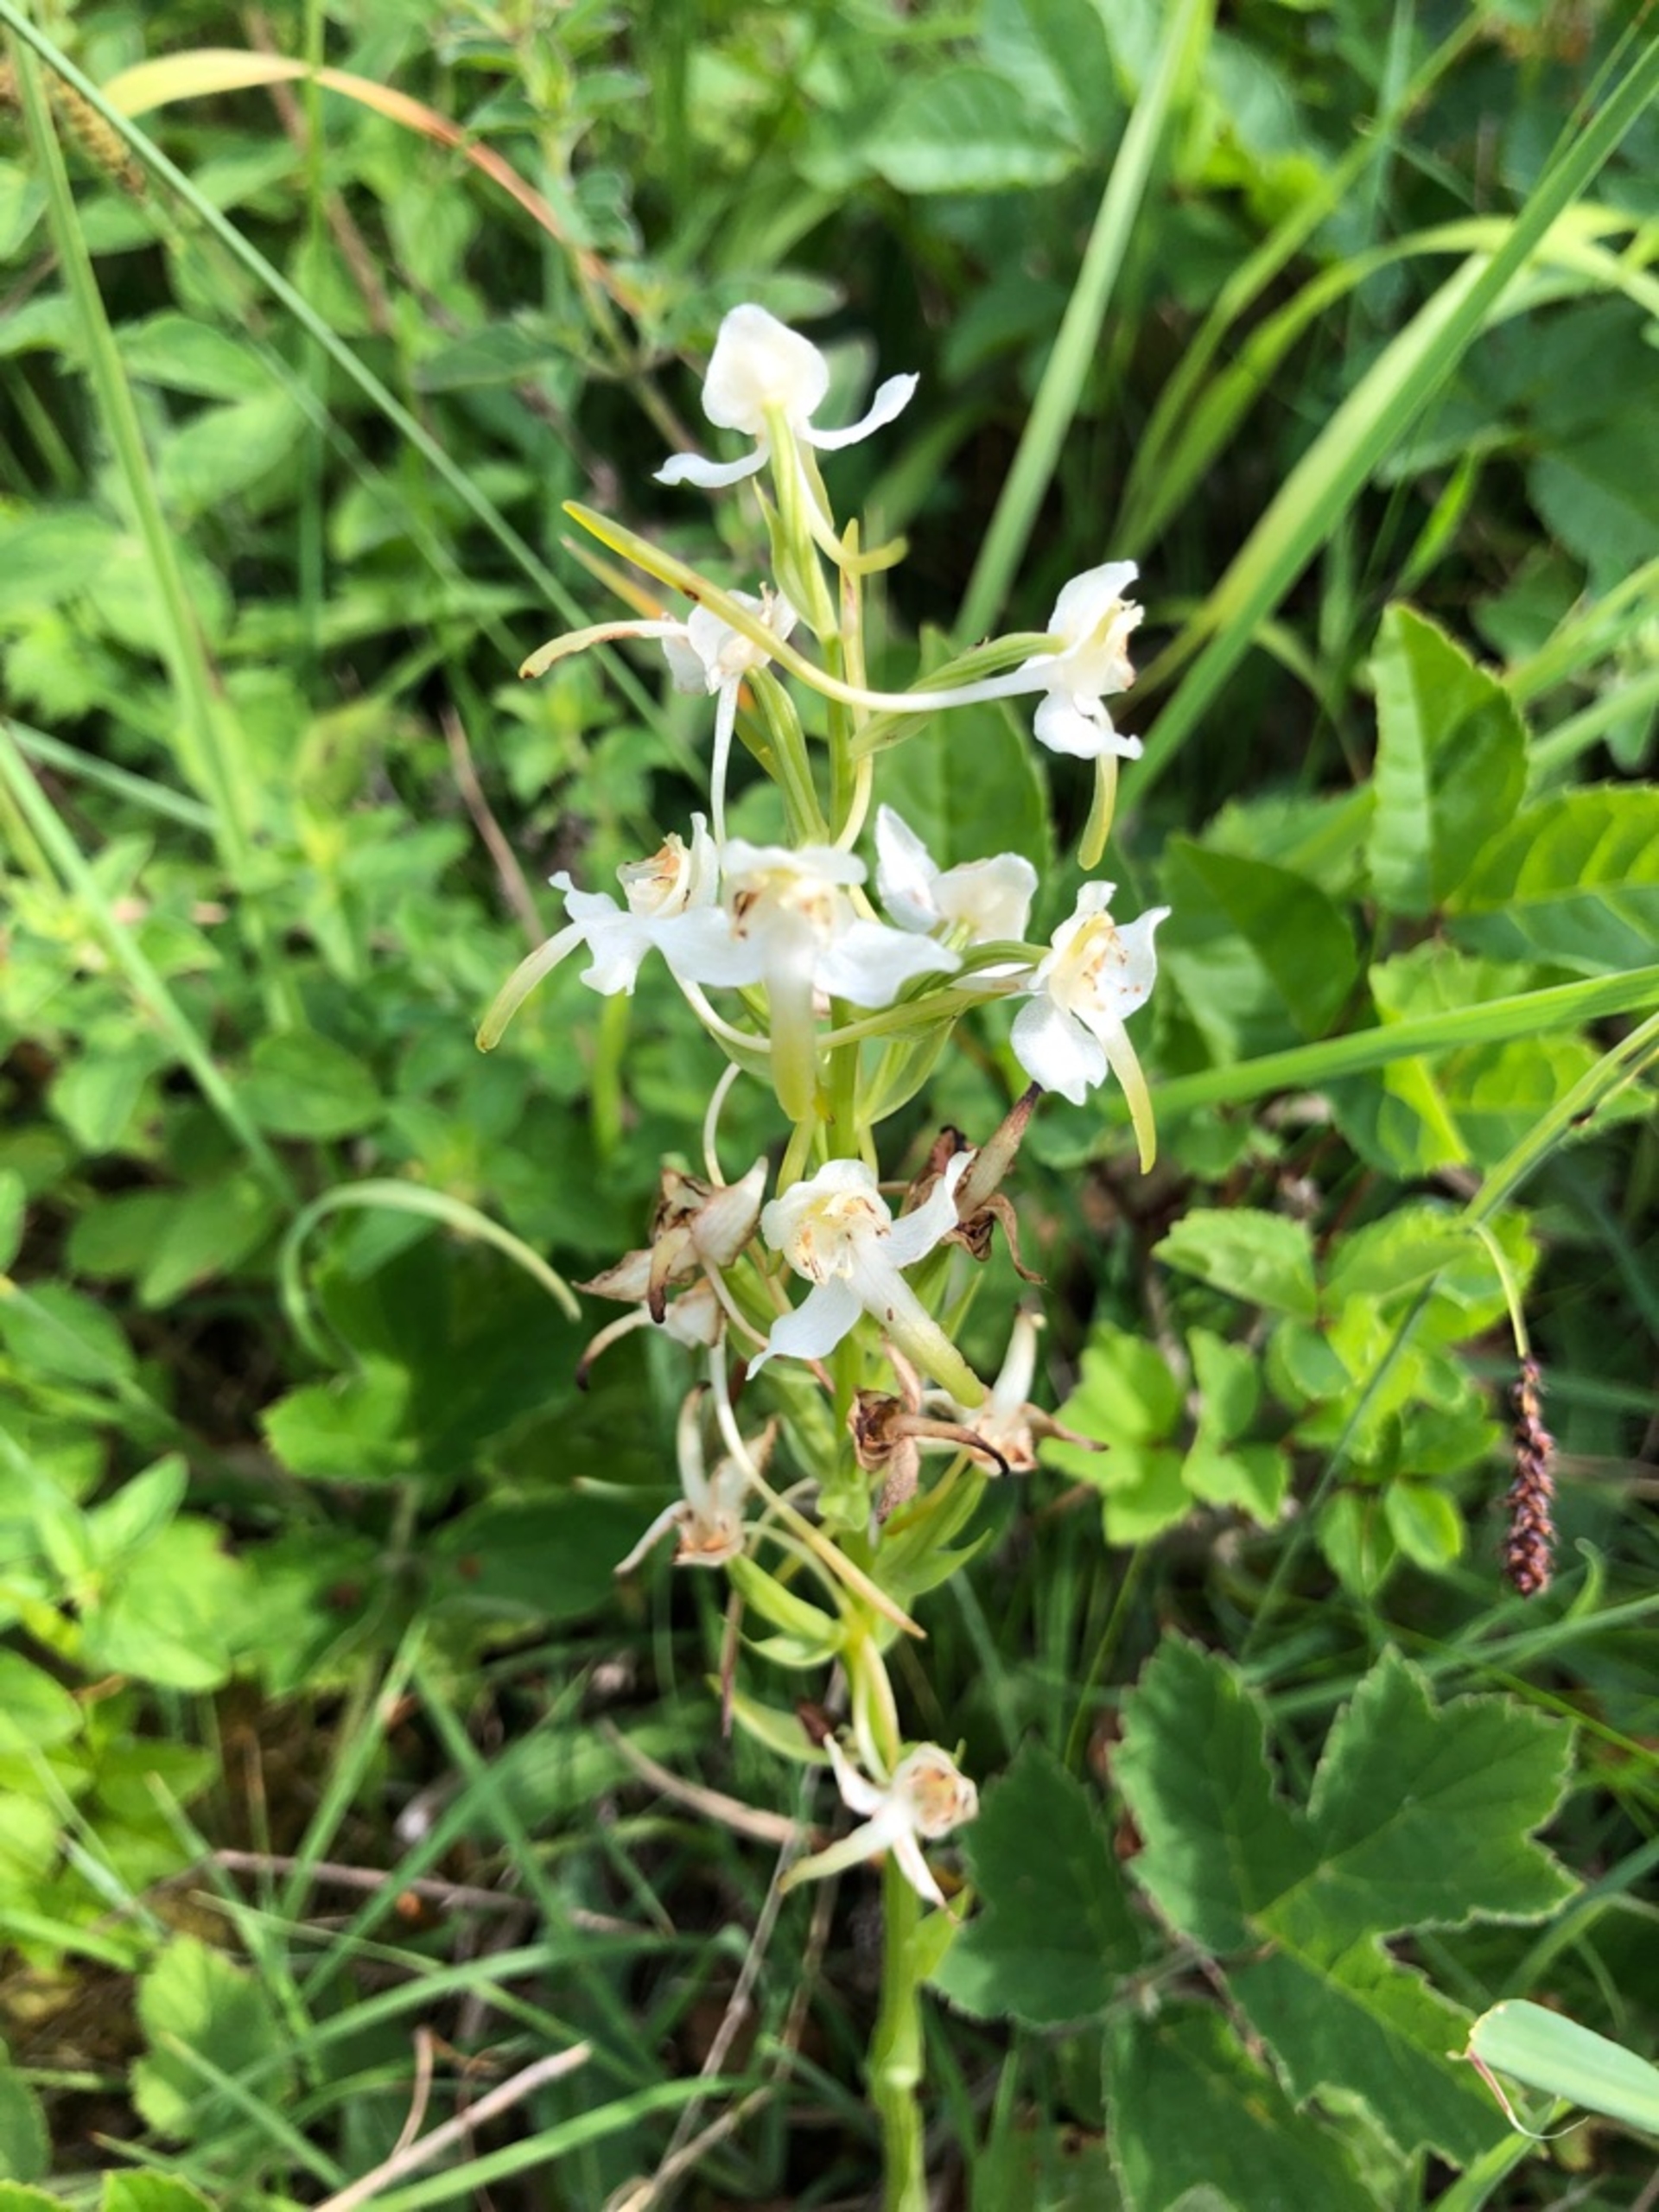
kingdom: Plantae
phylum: Tracheophyta
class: Liliopsida
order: Asparagales
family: Orchidaceae
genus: Platanthera
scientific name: Platanthera chlorantha
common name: Skov-gøgelilje
